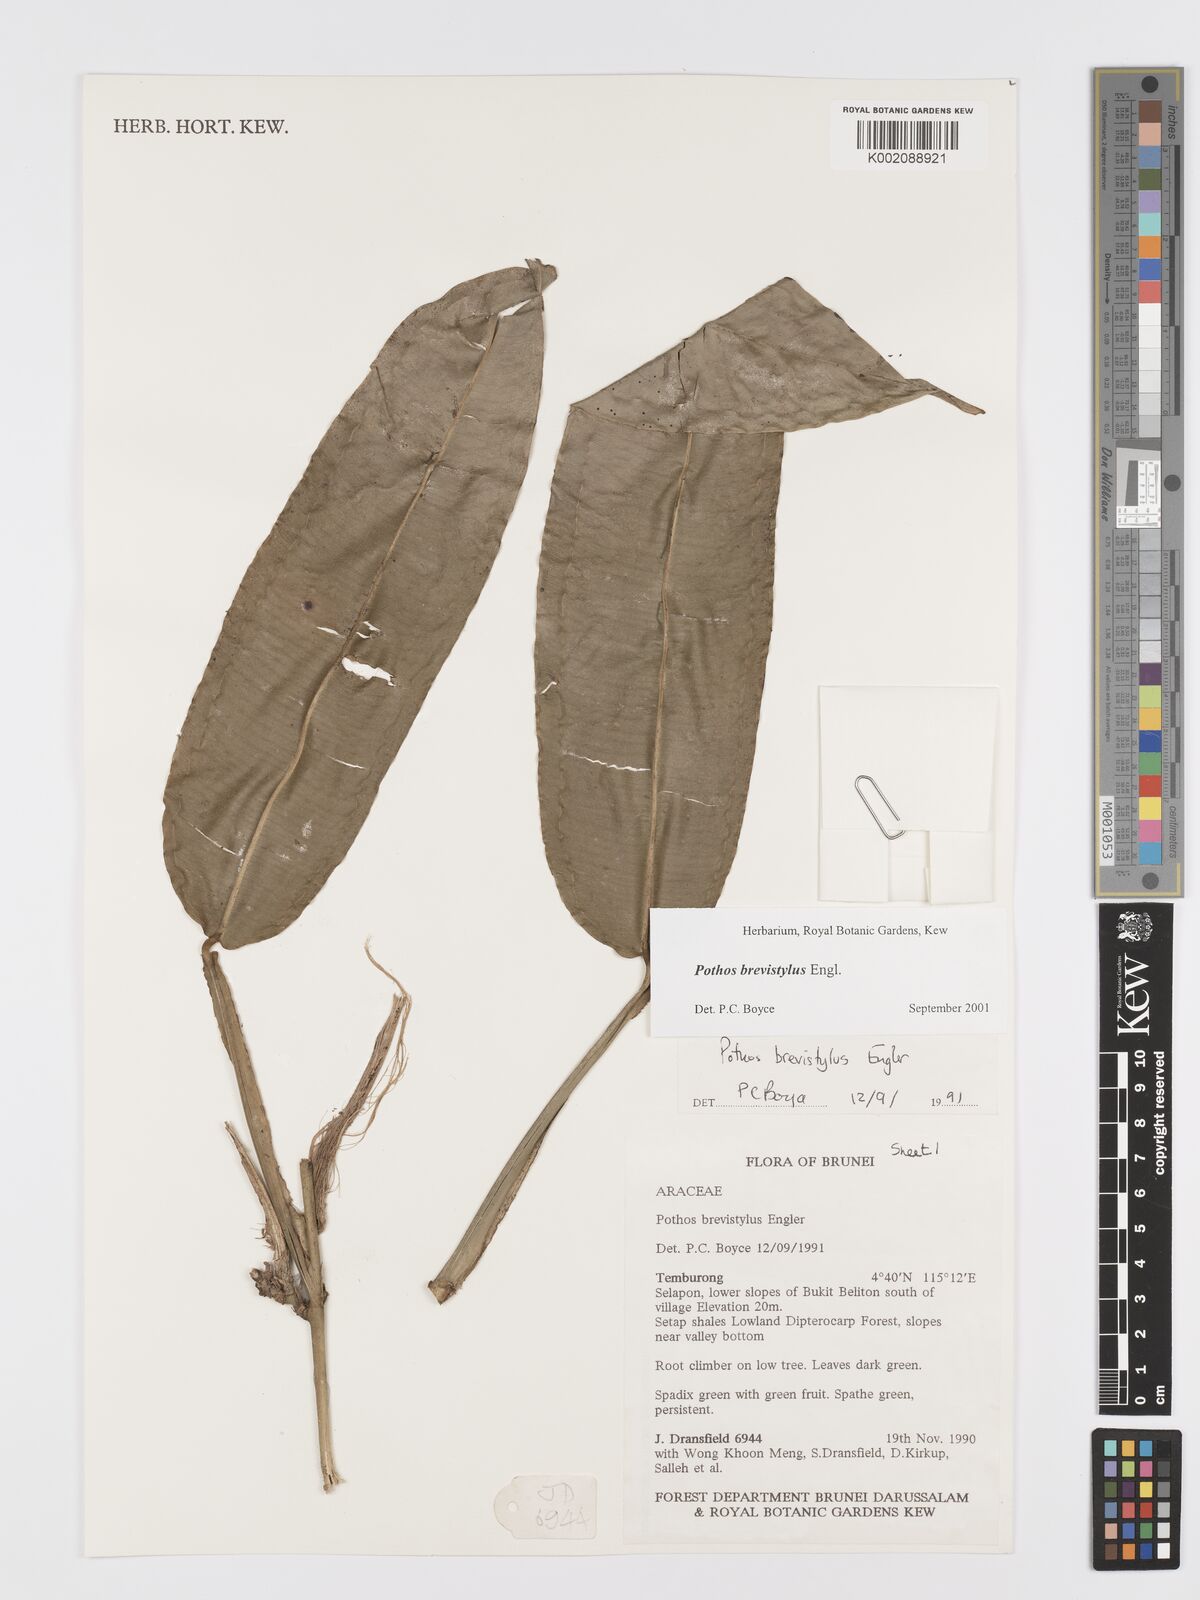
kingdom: Plantae
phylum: Tracheophyta
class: Liliopsida
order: Alismatales
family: Araceae
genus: Pothos
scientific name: Pothos brevistylus
